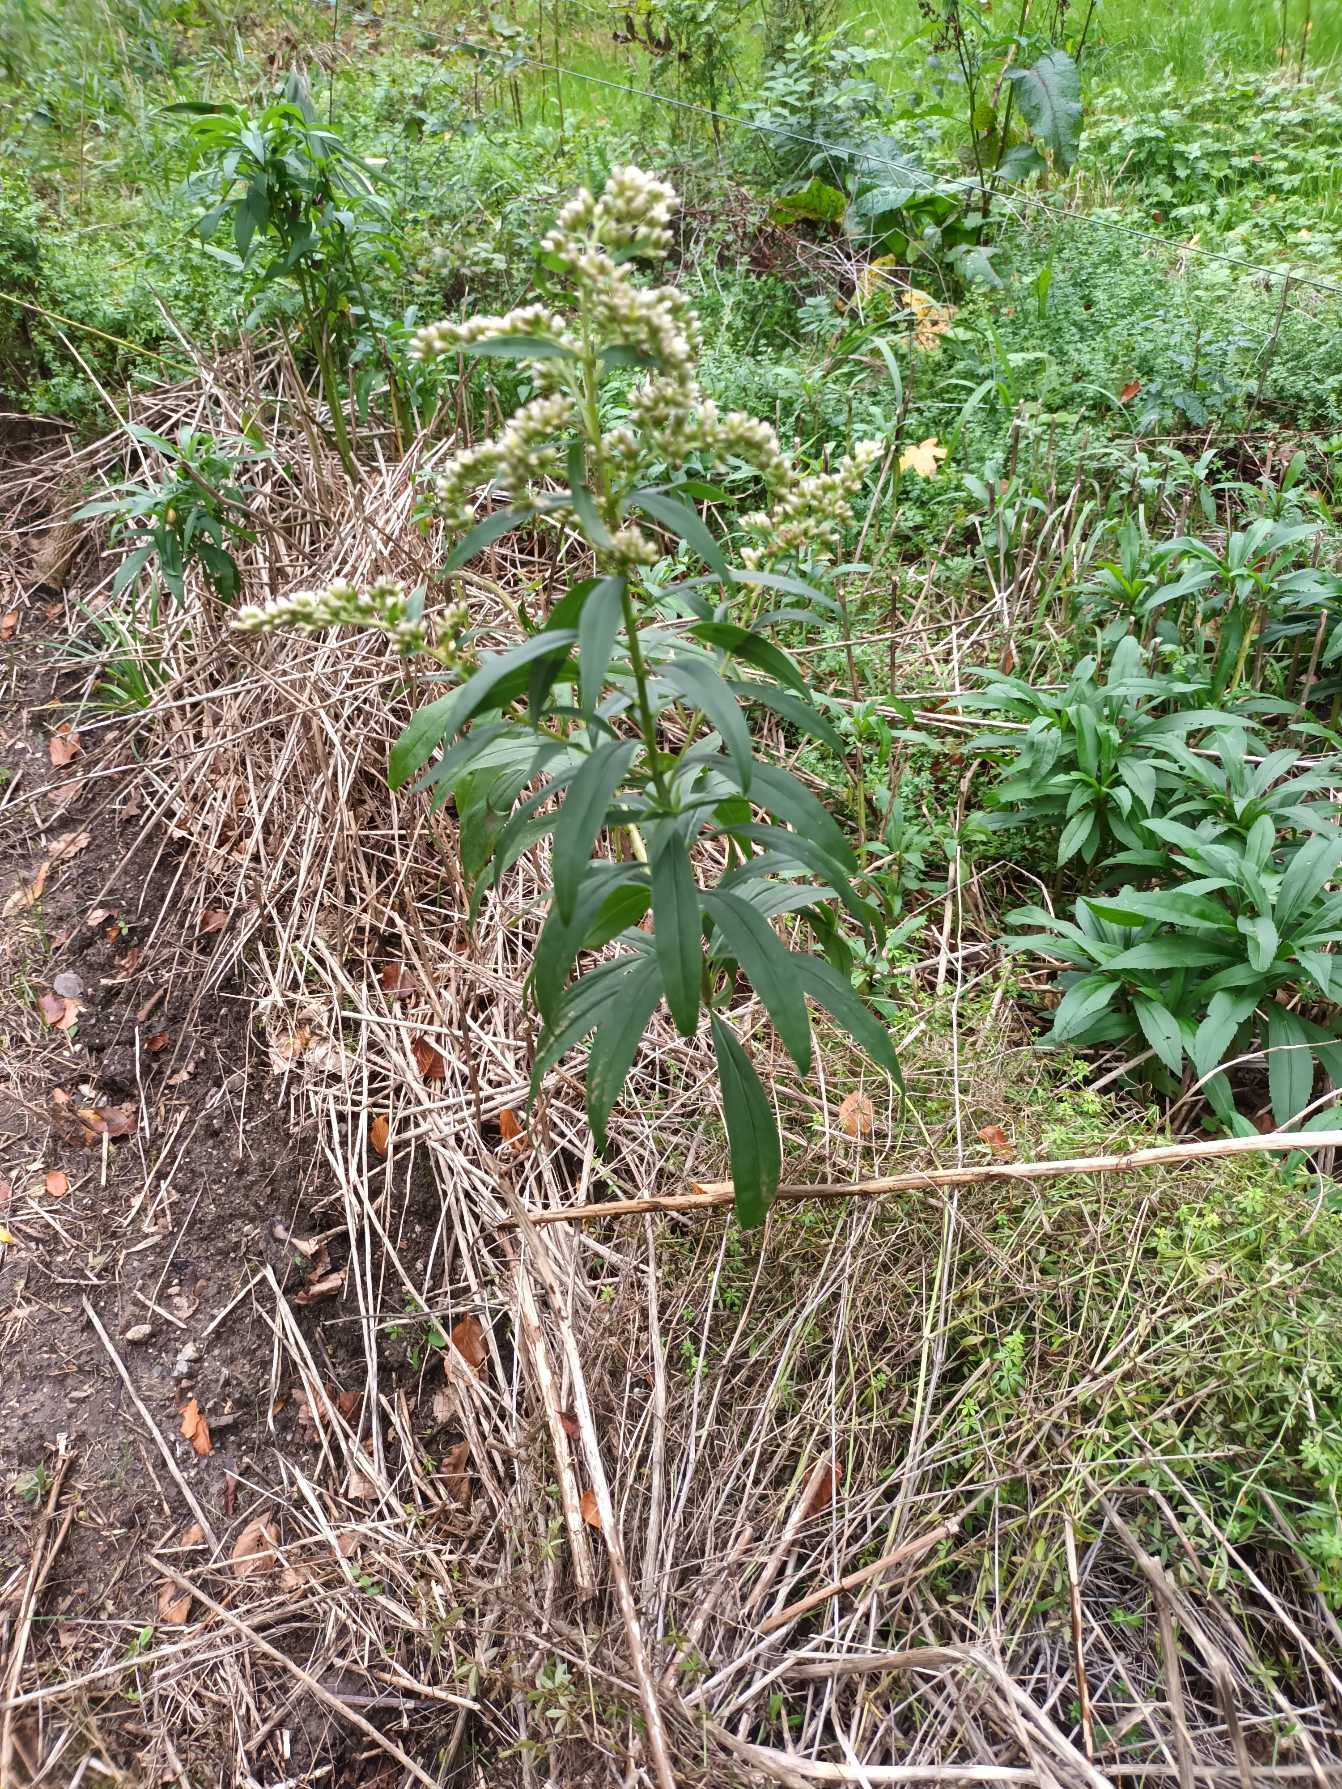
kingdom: Plantae
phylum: Tracheophyta
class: Magnoliopsida
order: Asterales
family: Asteraceae
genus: Solidago
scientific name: Solidago gigantea
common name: Sildig gyldenris
